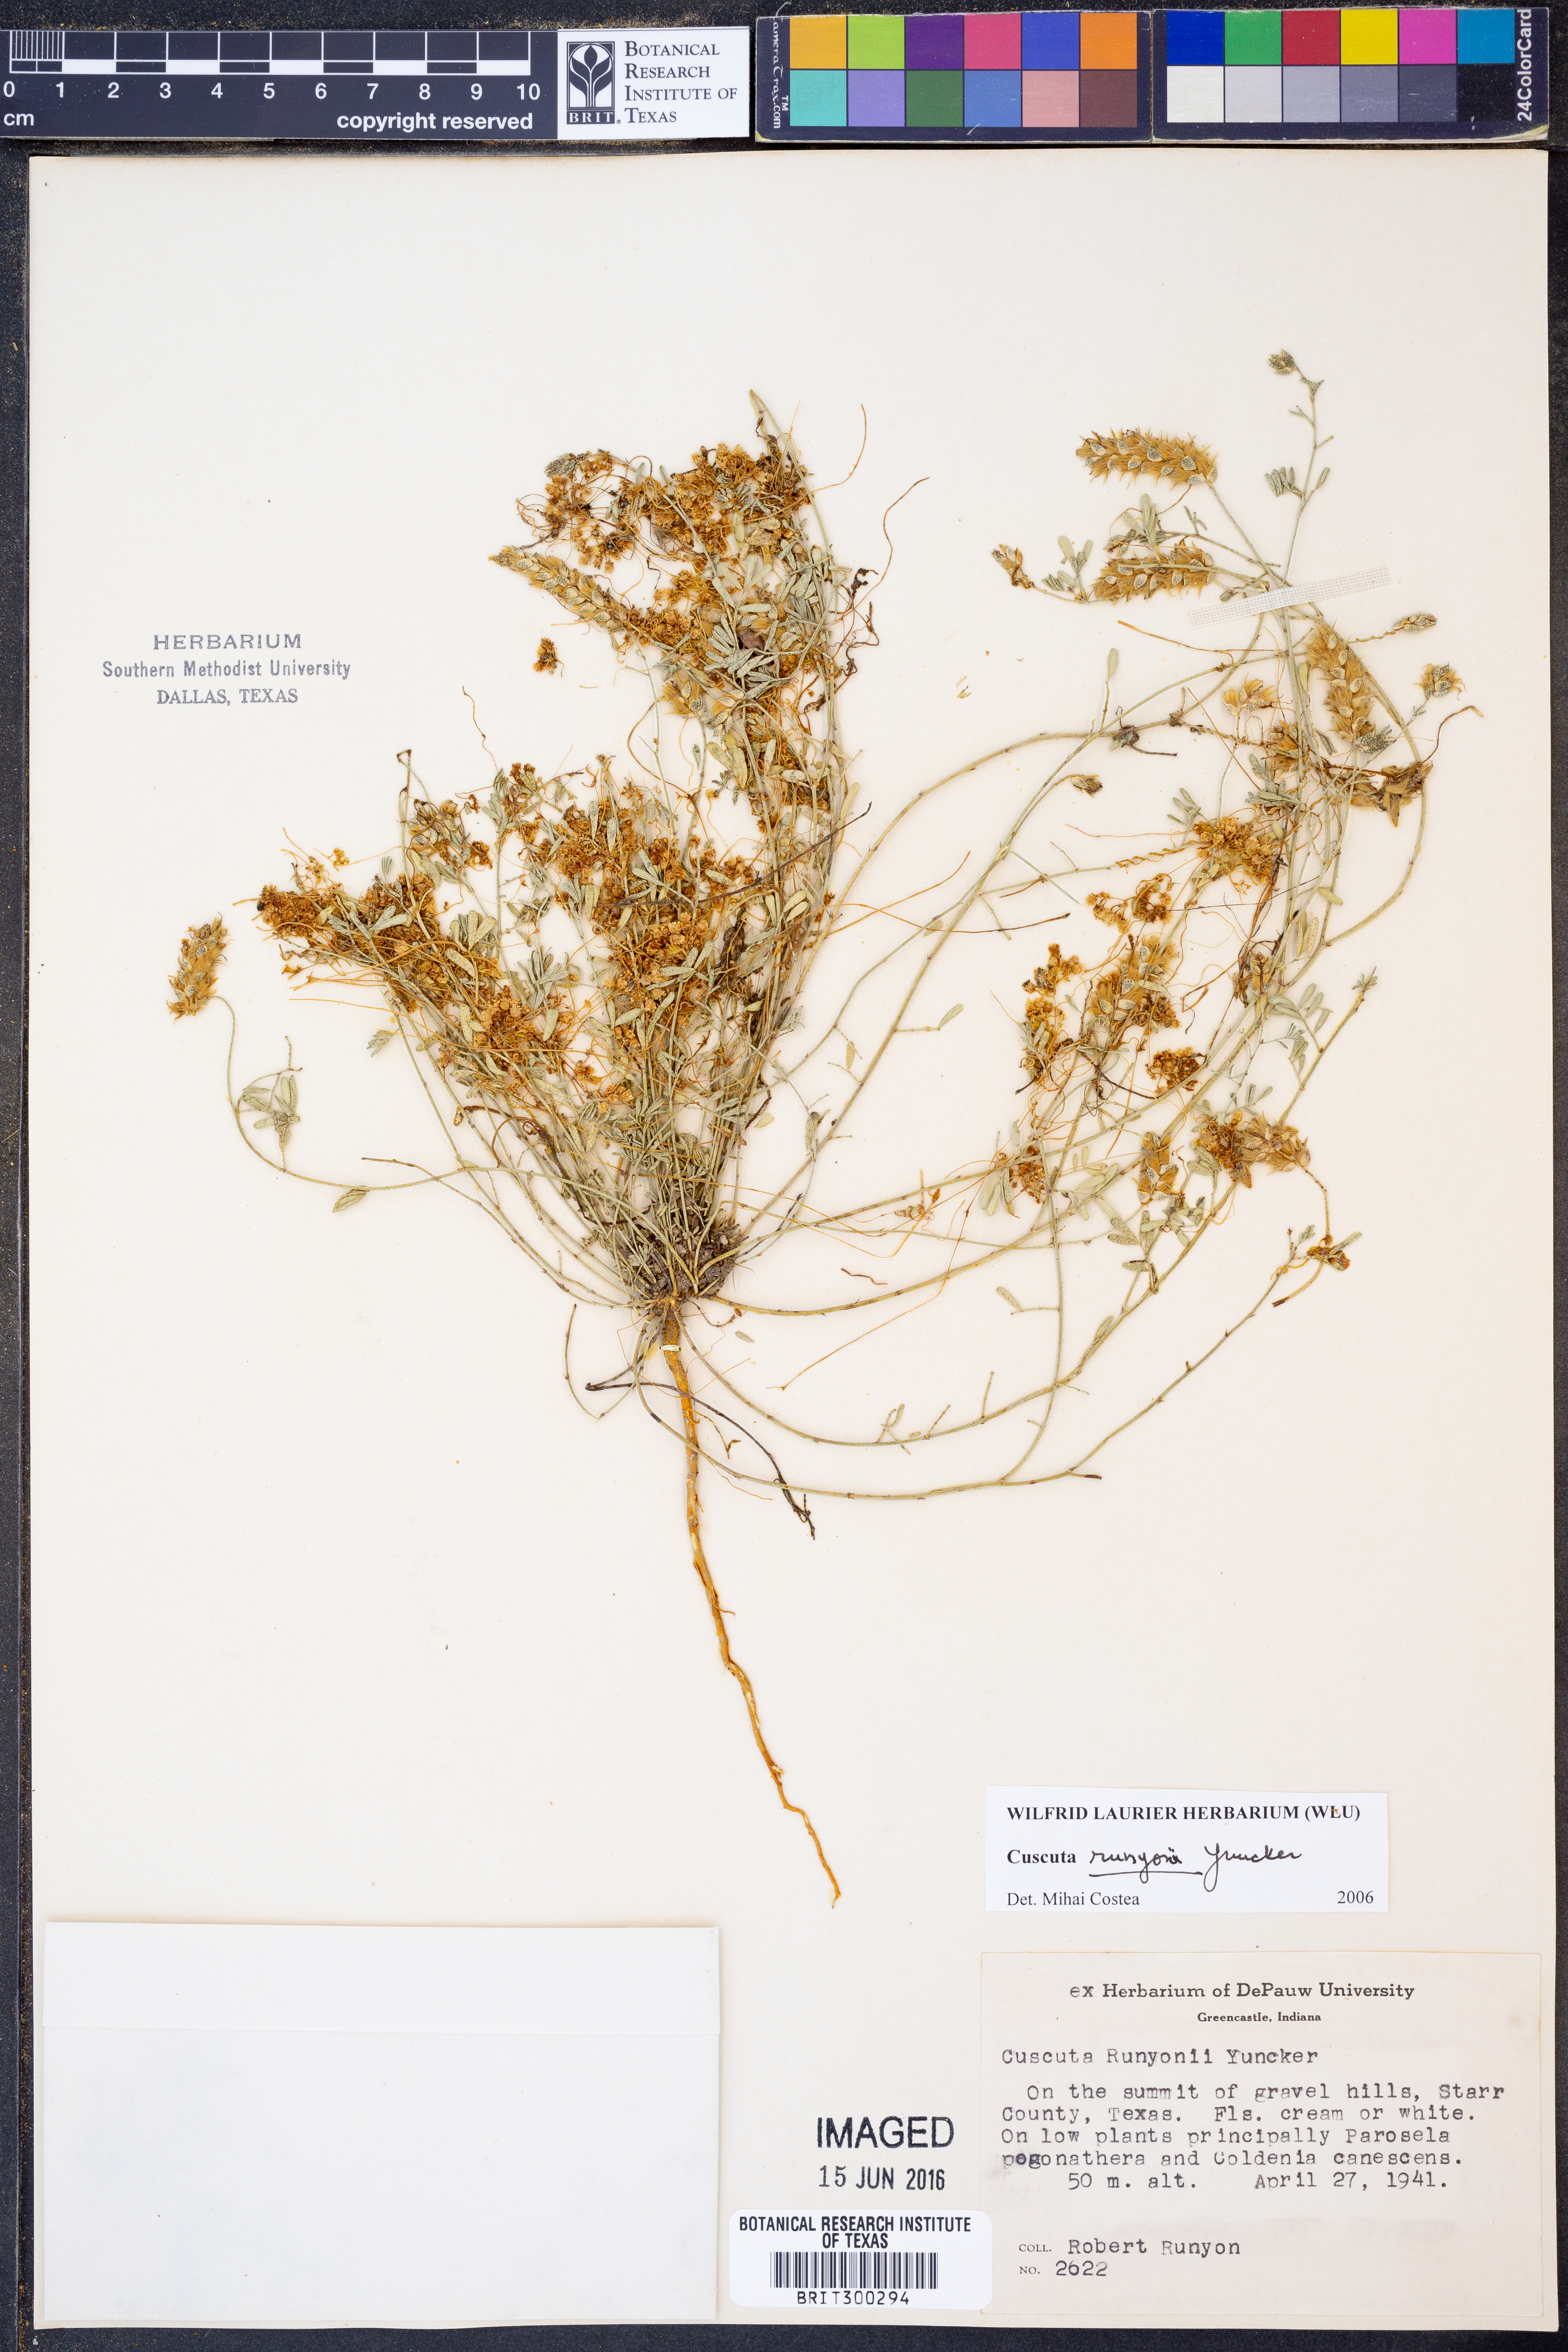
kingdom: Plantae
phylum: Tracheophyta
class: Magnoliopsida
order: Solanales
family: Convolvulaceae
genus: Cuscuta
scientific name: Cuscuta runyonii
